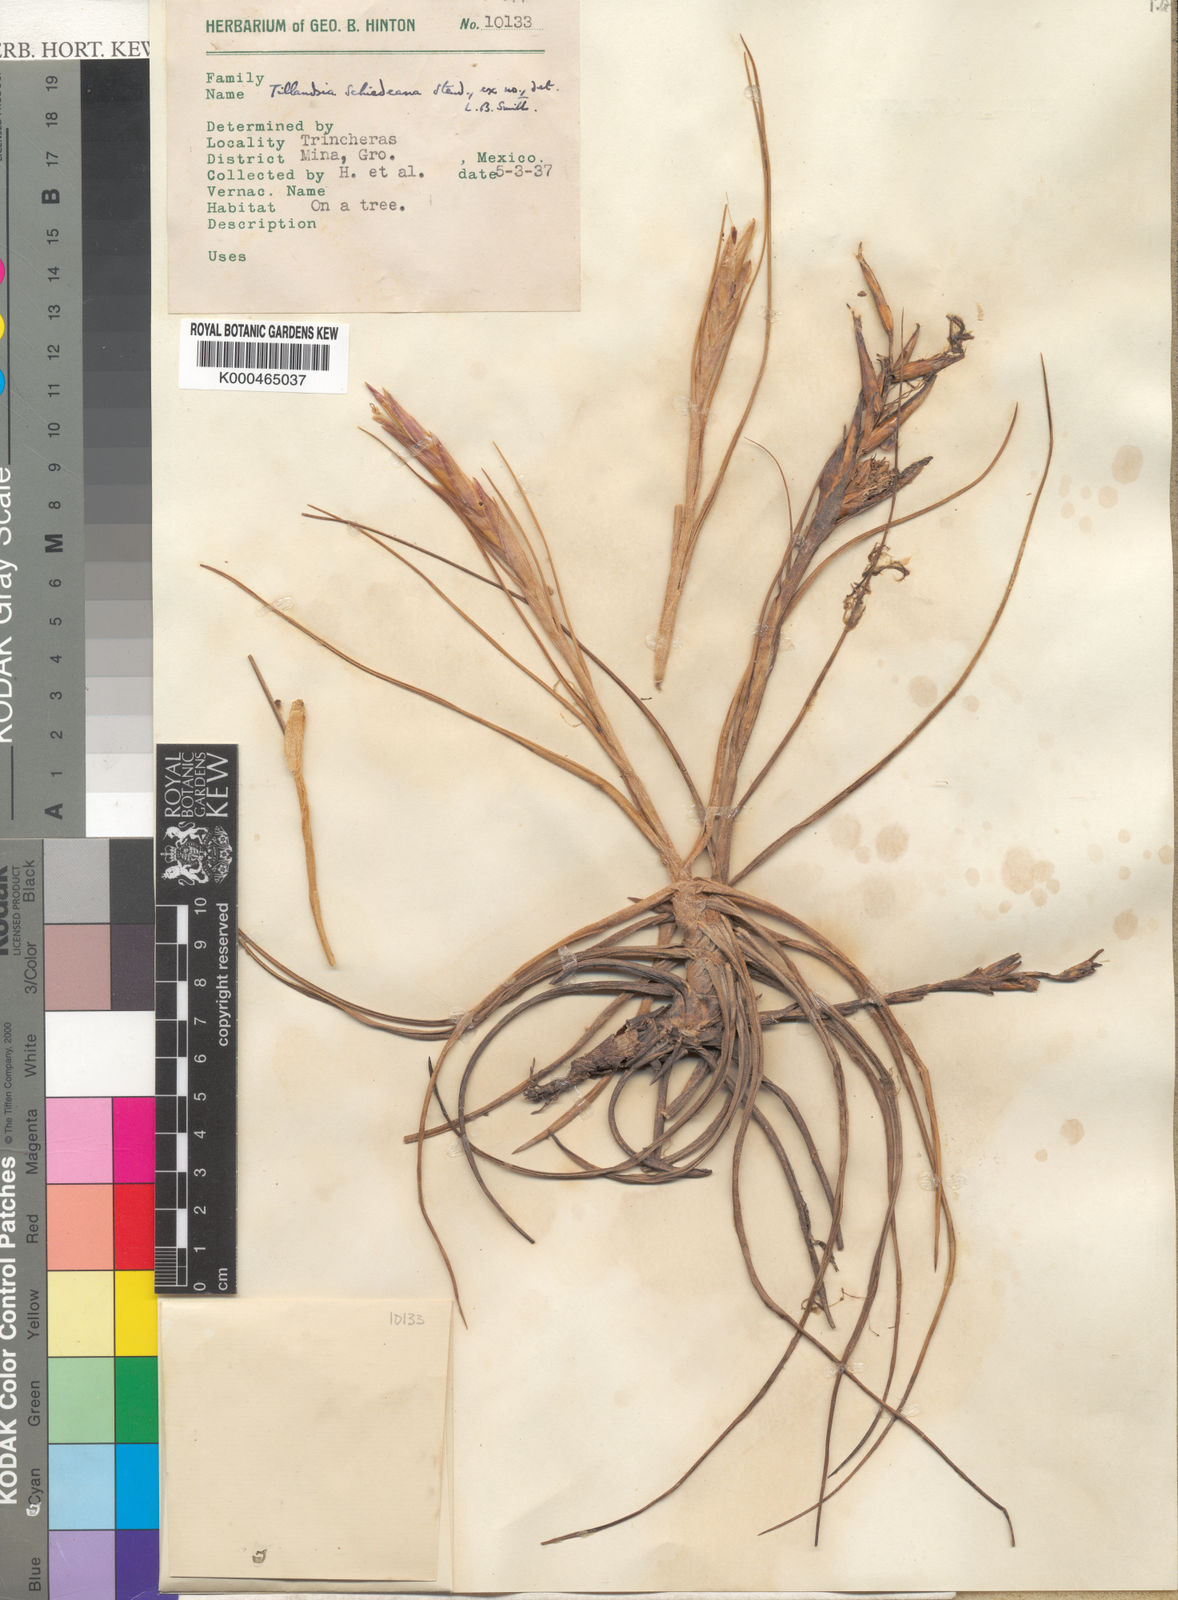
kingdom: Plantae
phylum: Tracheophyta
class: Liliopsida
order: Poales
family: Bromeliaceae
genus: Tillandsia
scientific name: Tillandsia schiedeana
